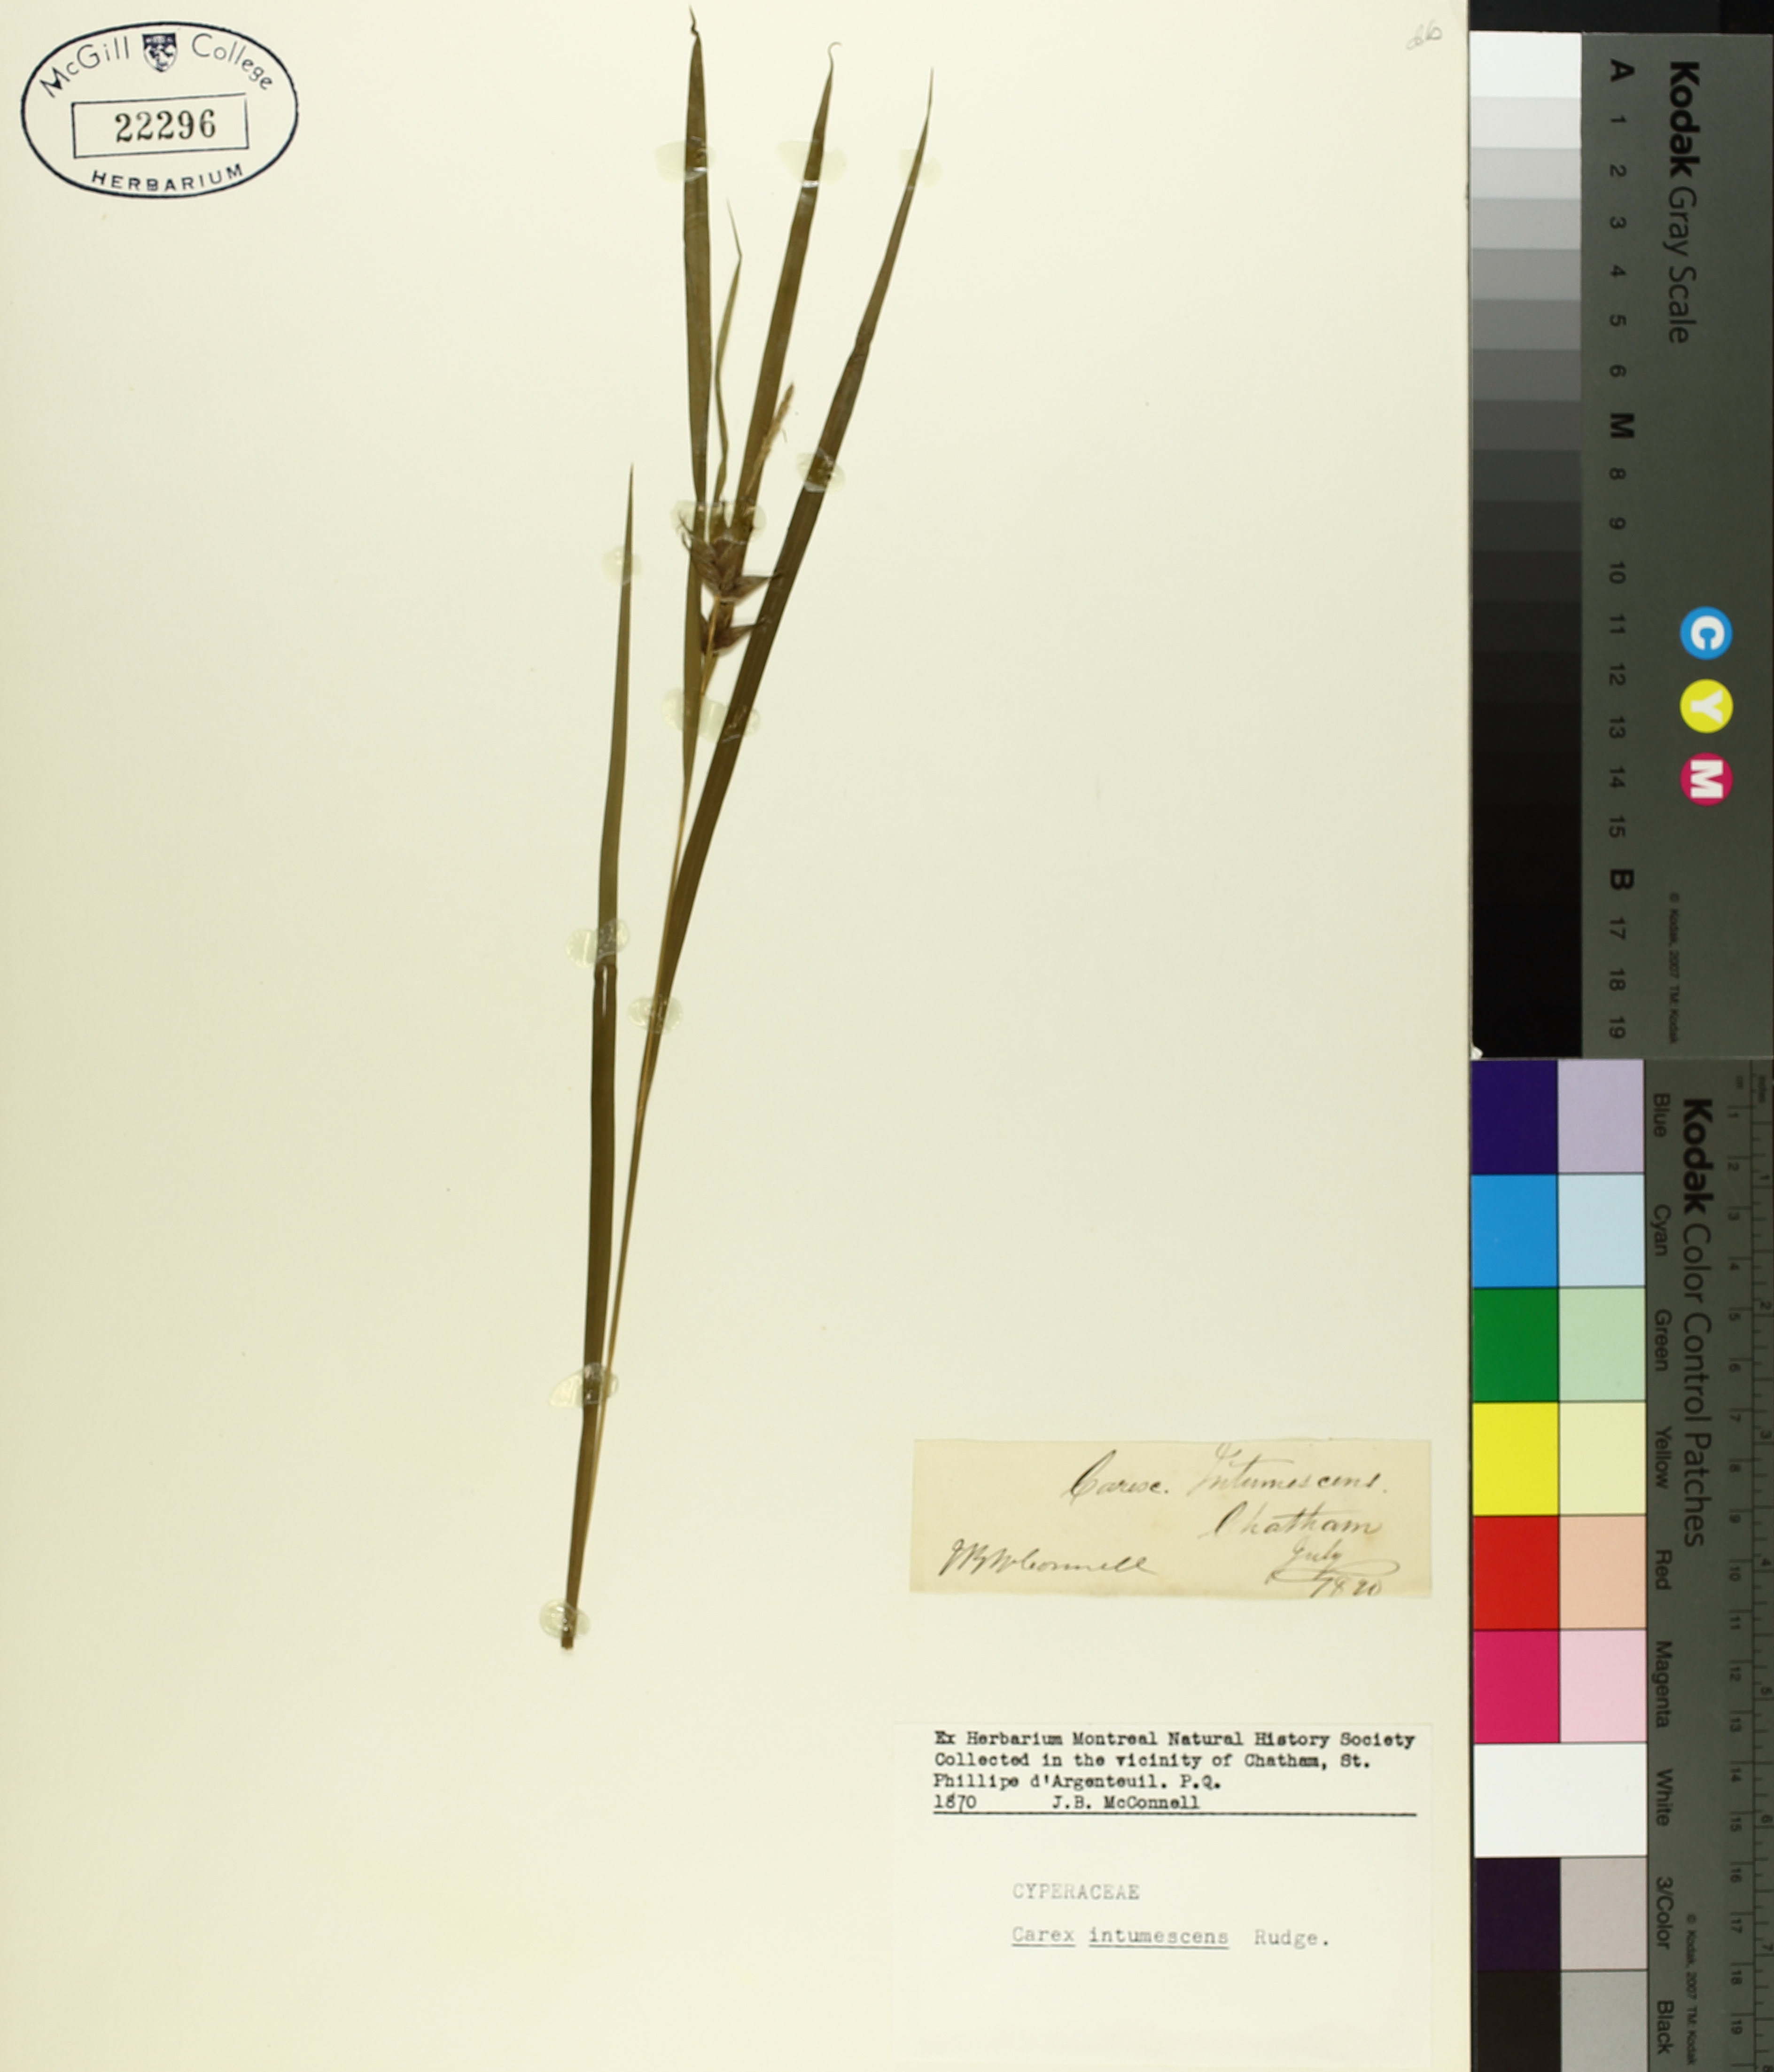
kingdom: Plantae
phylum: Tracheophyta
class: Liliopsida
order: Poales
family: Cyperaceae
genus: Carex
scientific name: Carex intumescens
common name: Greater bladder sedge
